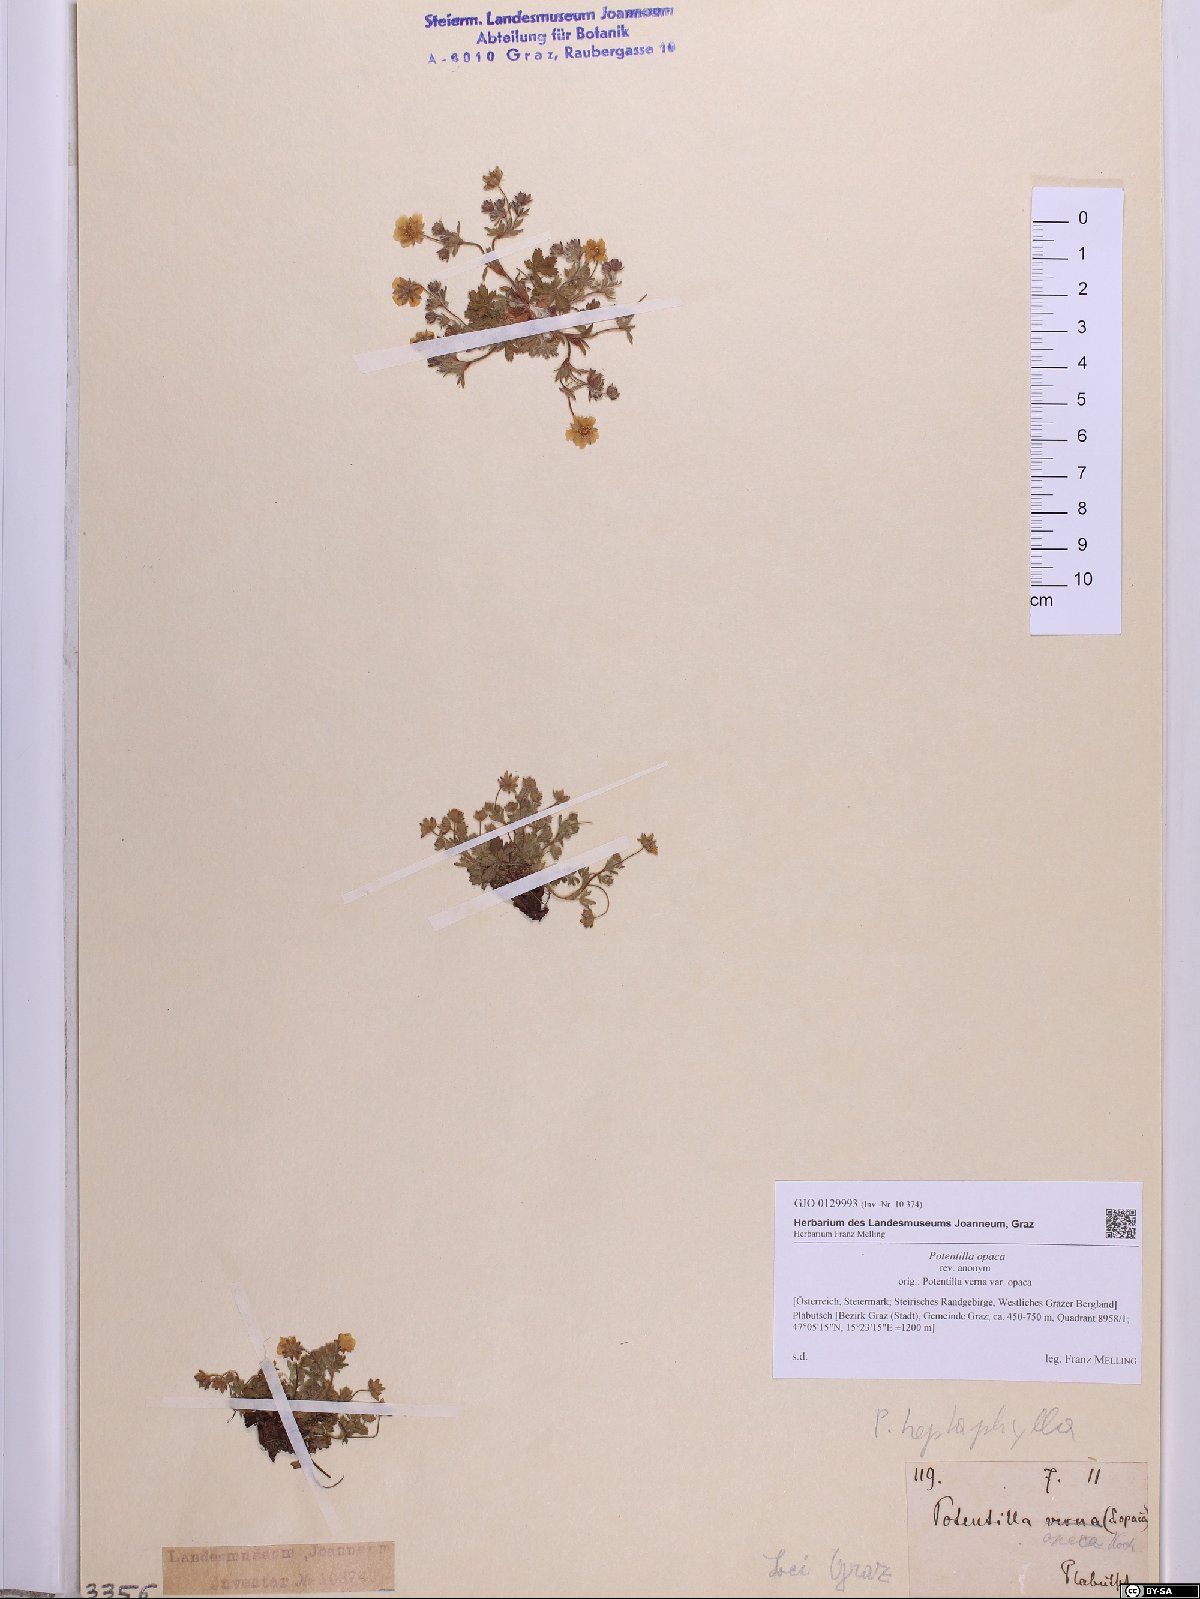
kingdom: Plantae
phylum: Tracheophyta
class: Magnoliopsida
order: Rosales
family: Rosaceae
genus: Potentilla
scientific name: Potentilla
